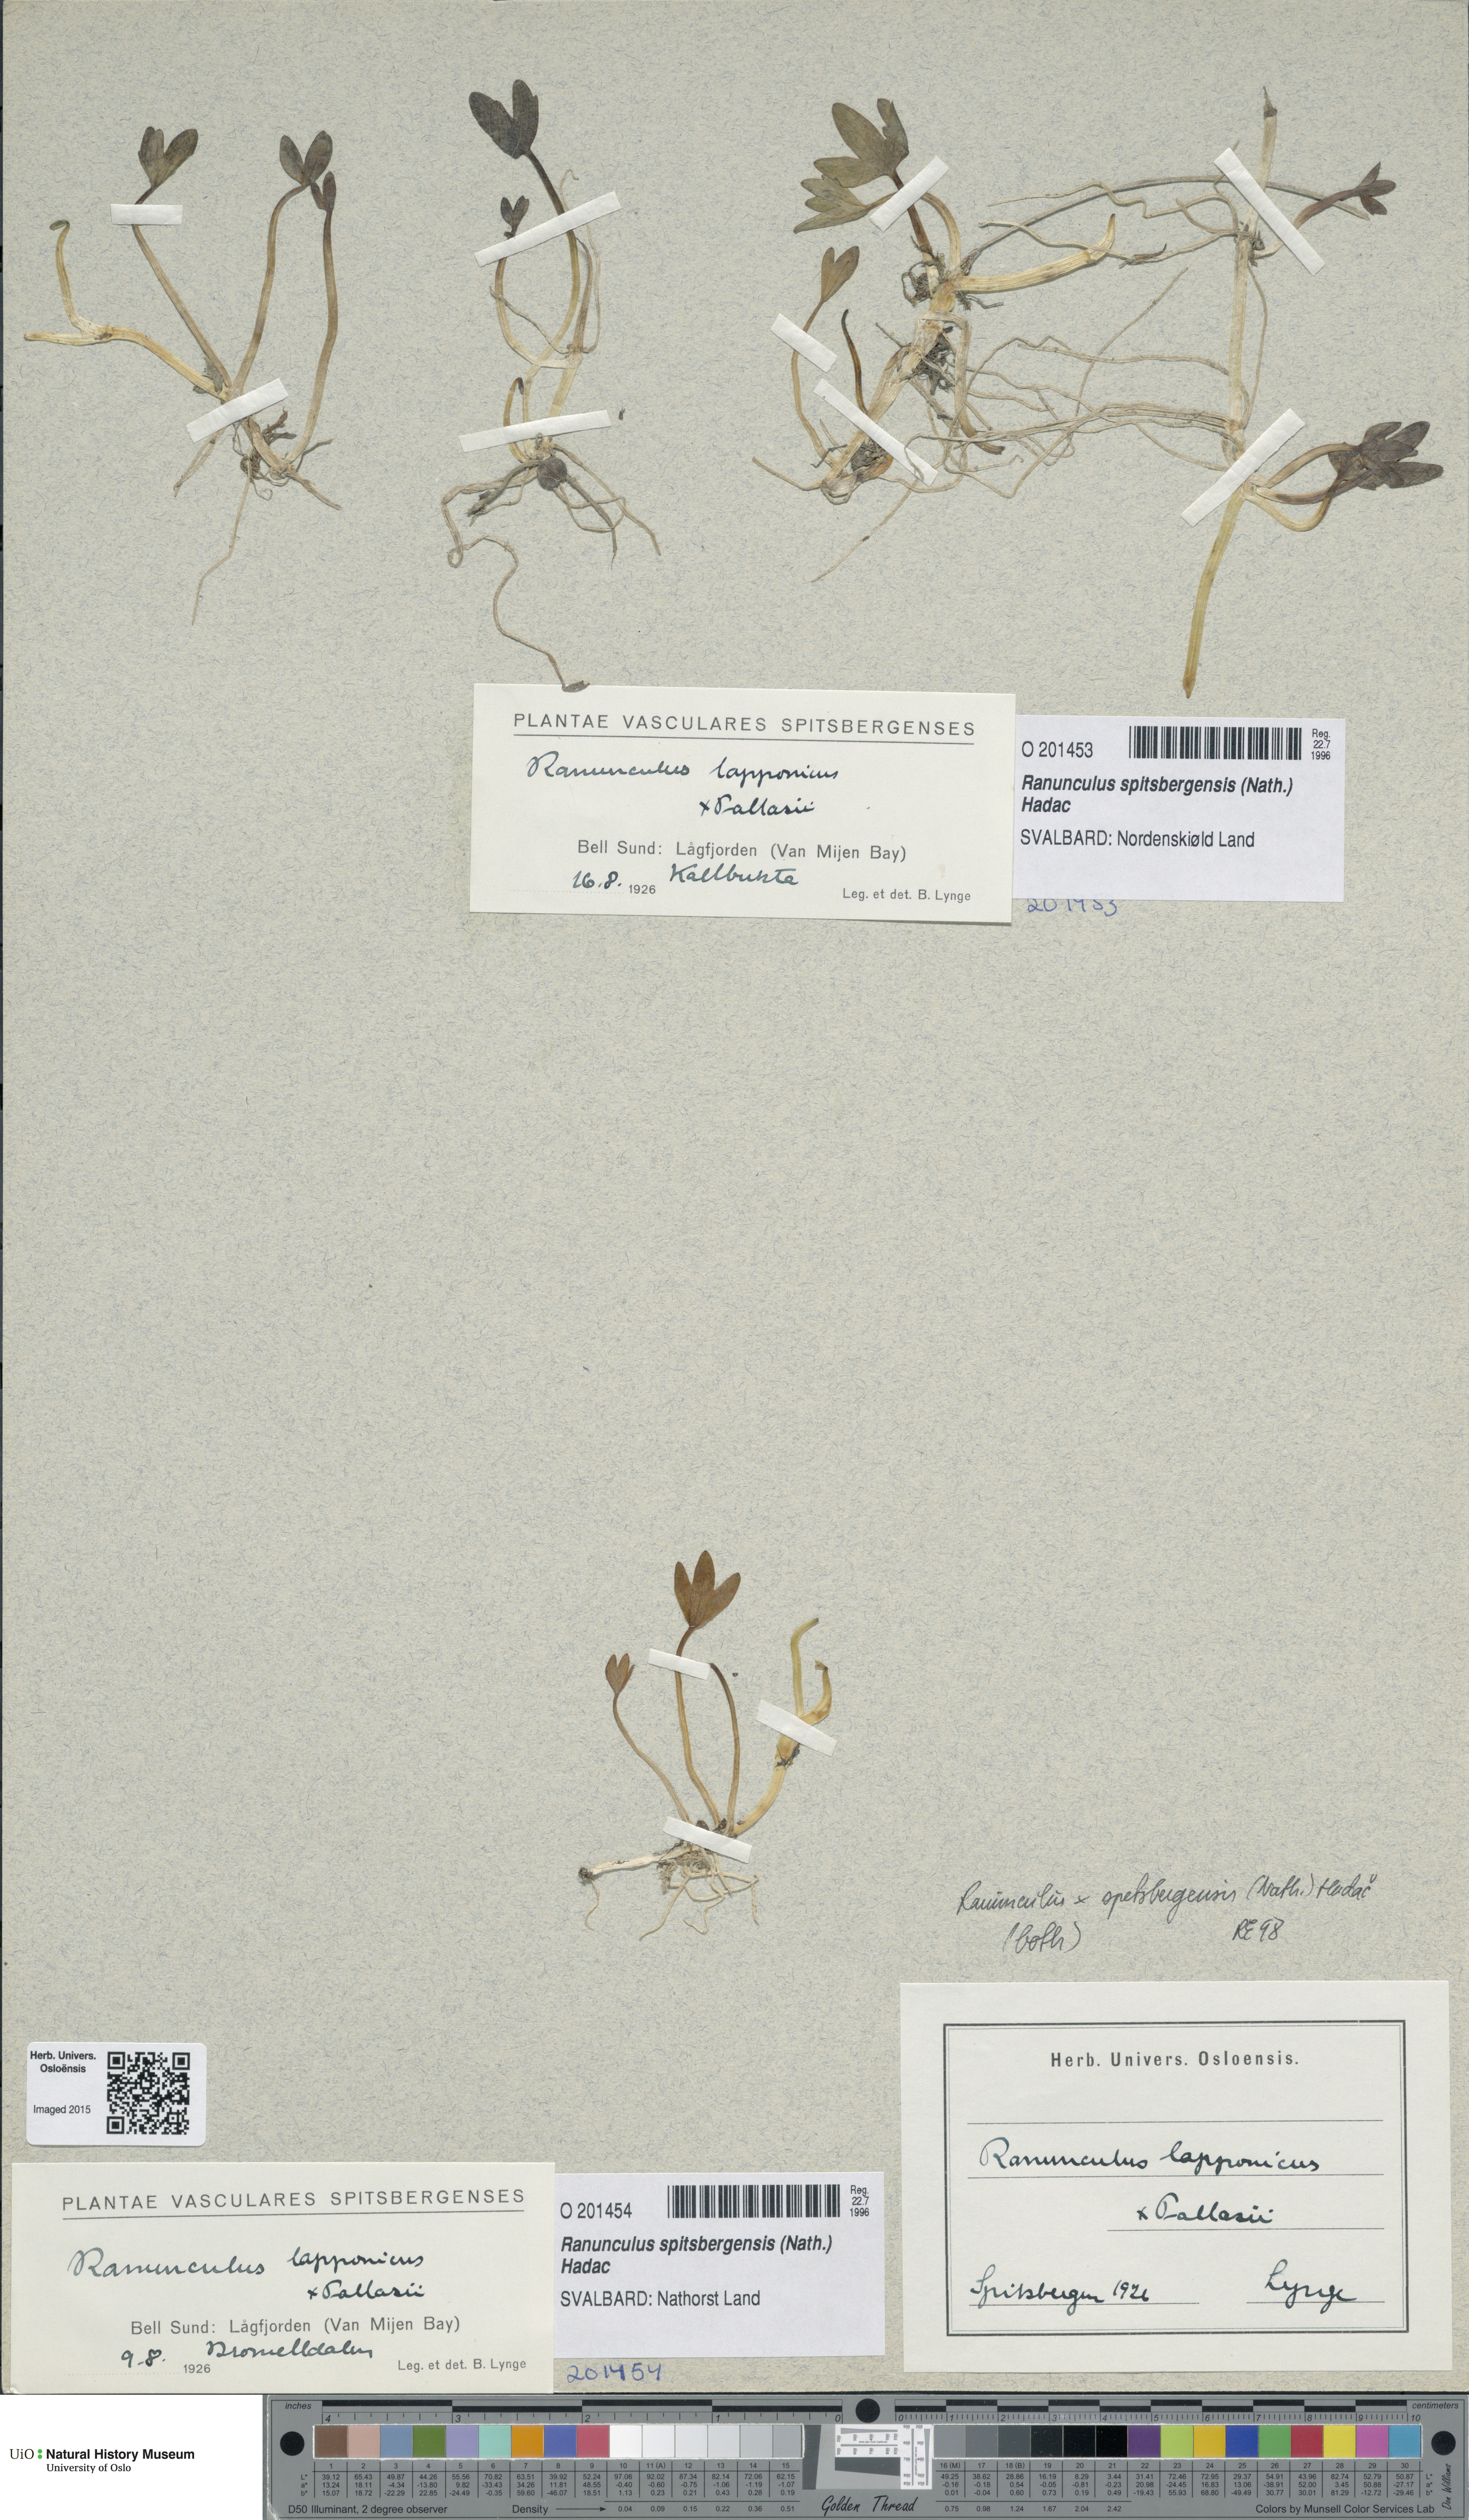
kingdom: Plantae
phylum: Tracheophyta
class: Magnoliopsida
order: Ranunculales
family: Ranunculaceae
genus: Coptidium
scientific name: Coptidium spitsbergense
